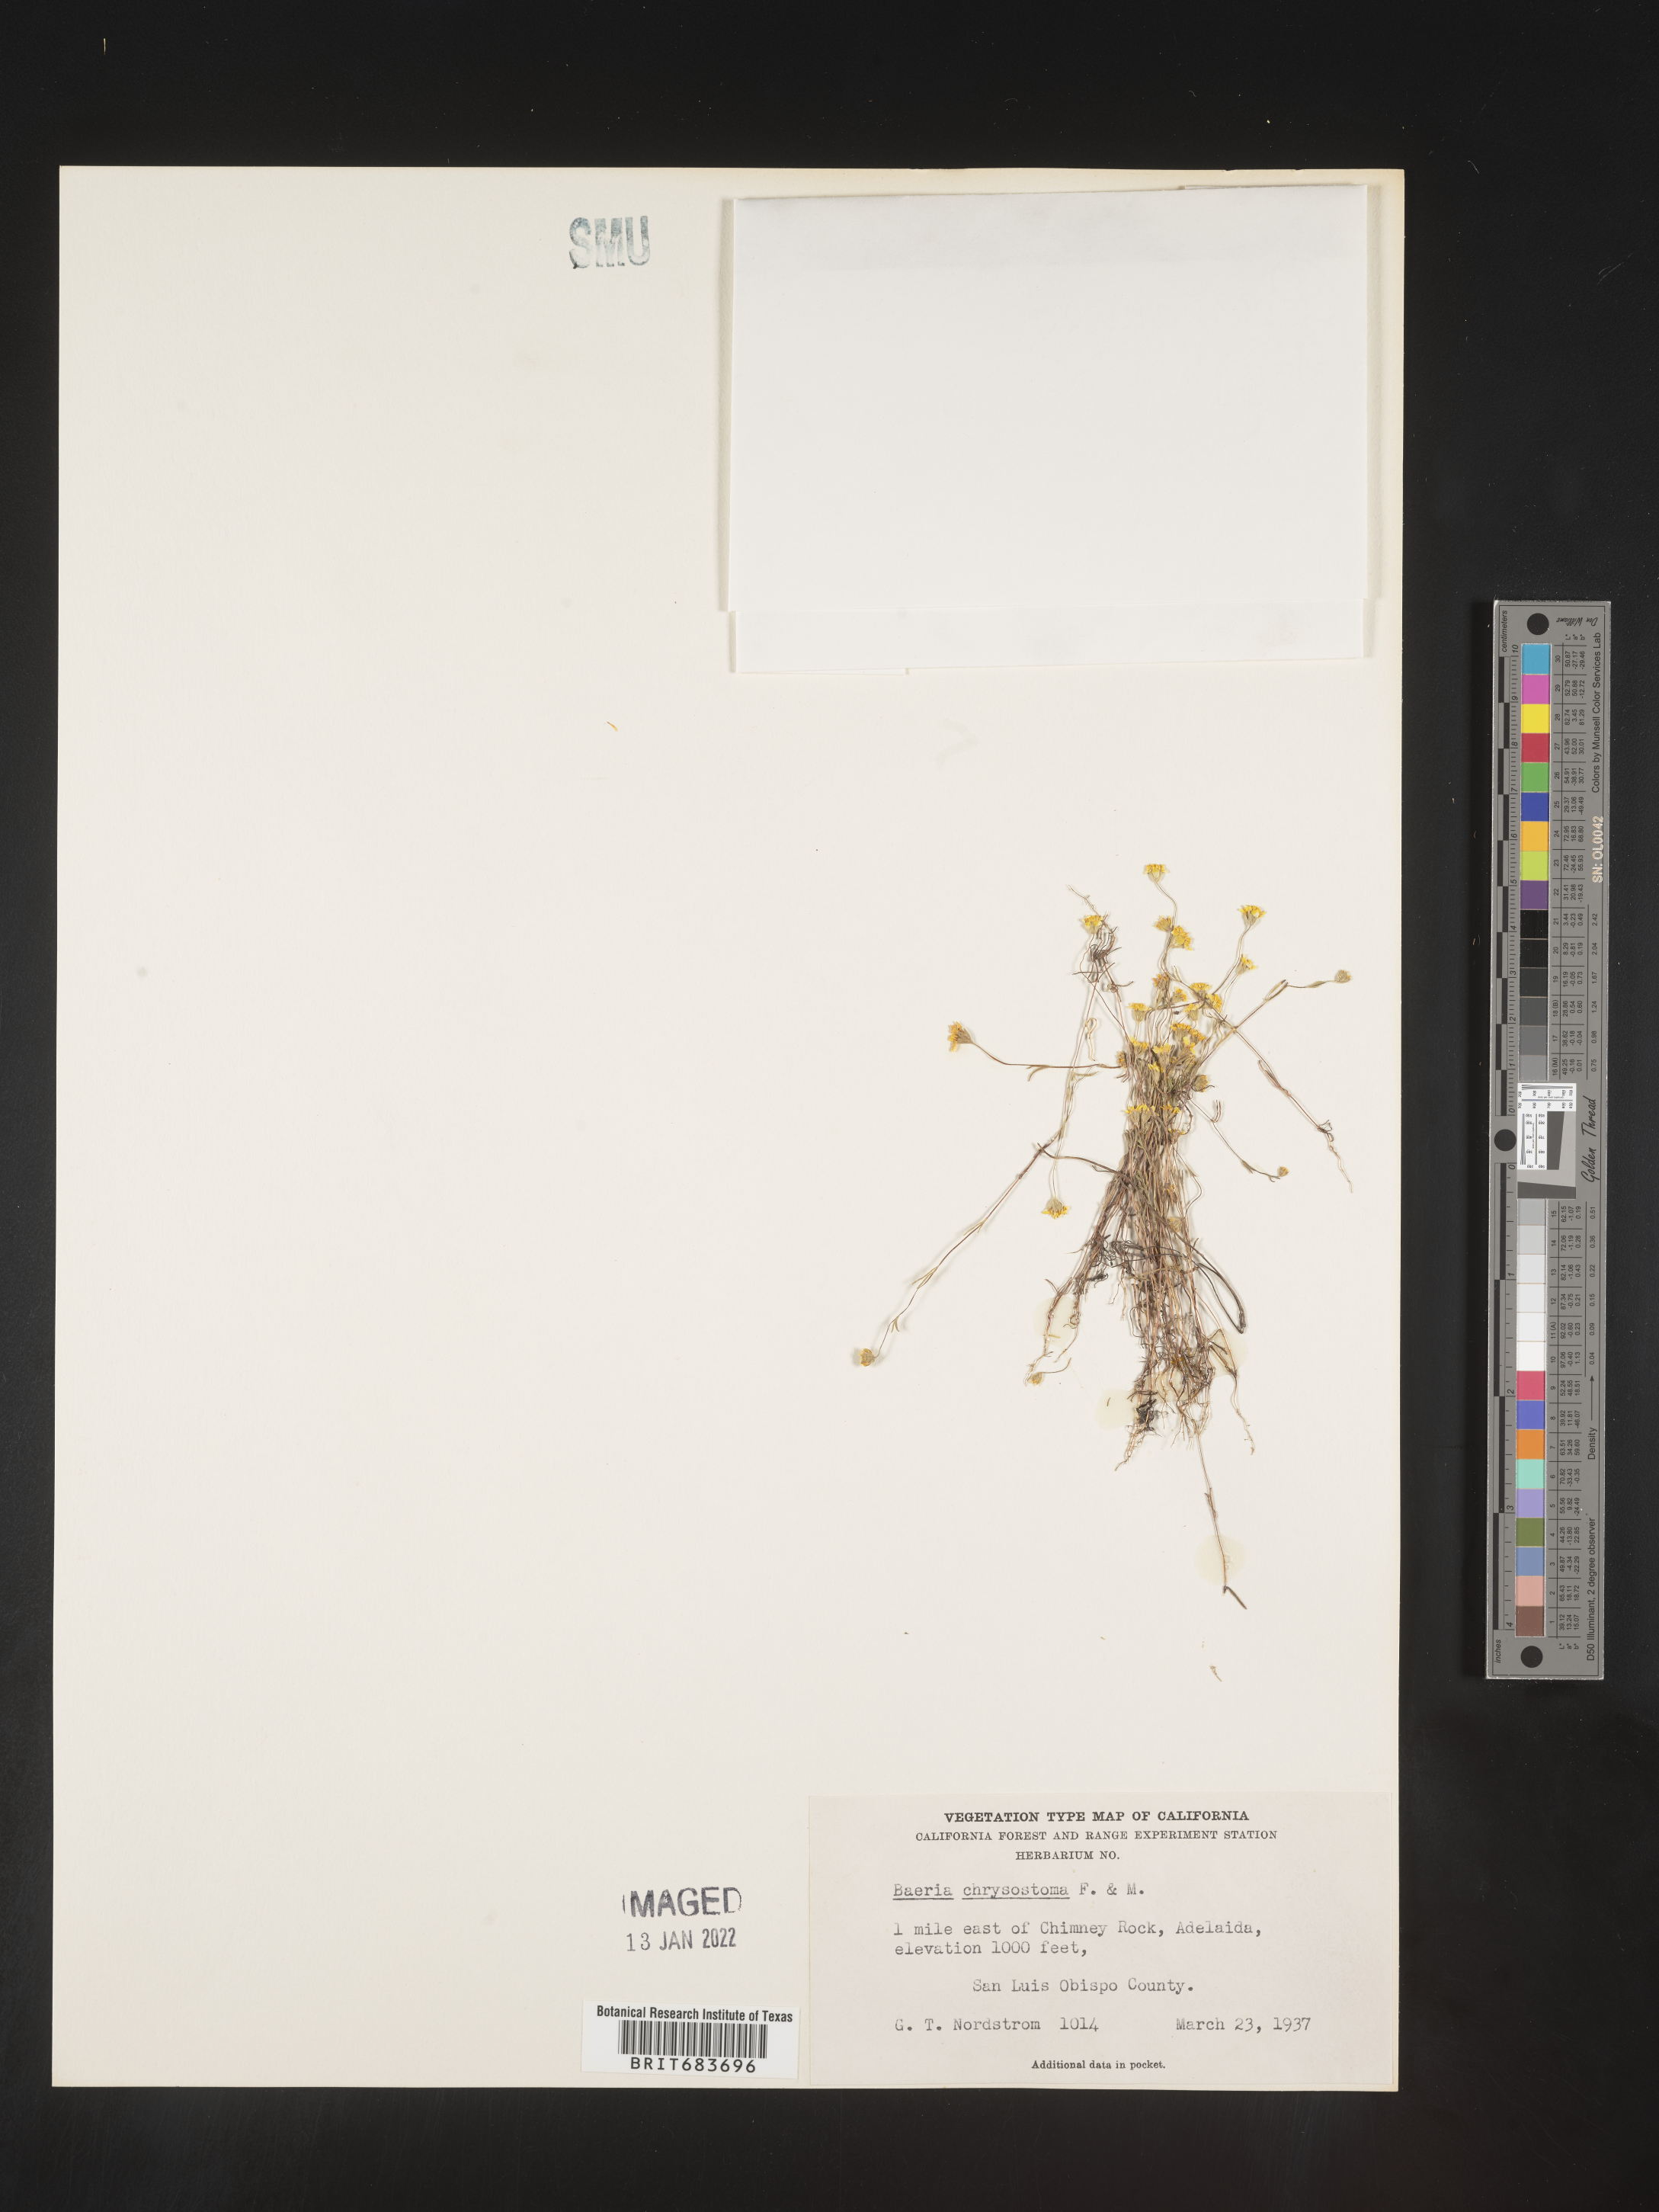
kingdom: Plantae
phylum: Tracheophyta
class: Magnoliopsida
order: Asterales
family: Asteraceae
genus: Lasthenia
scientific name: Lasthenia
